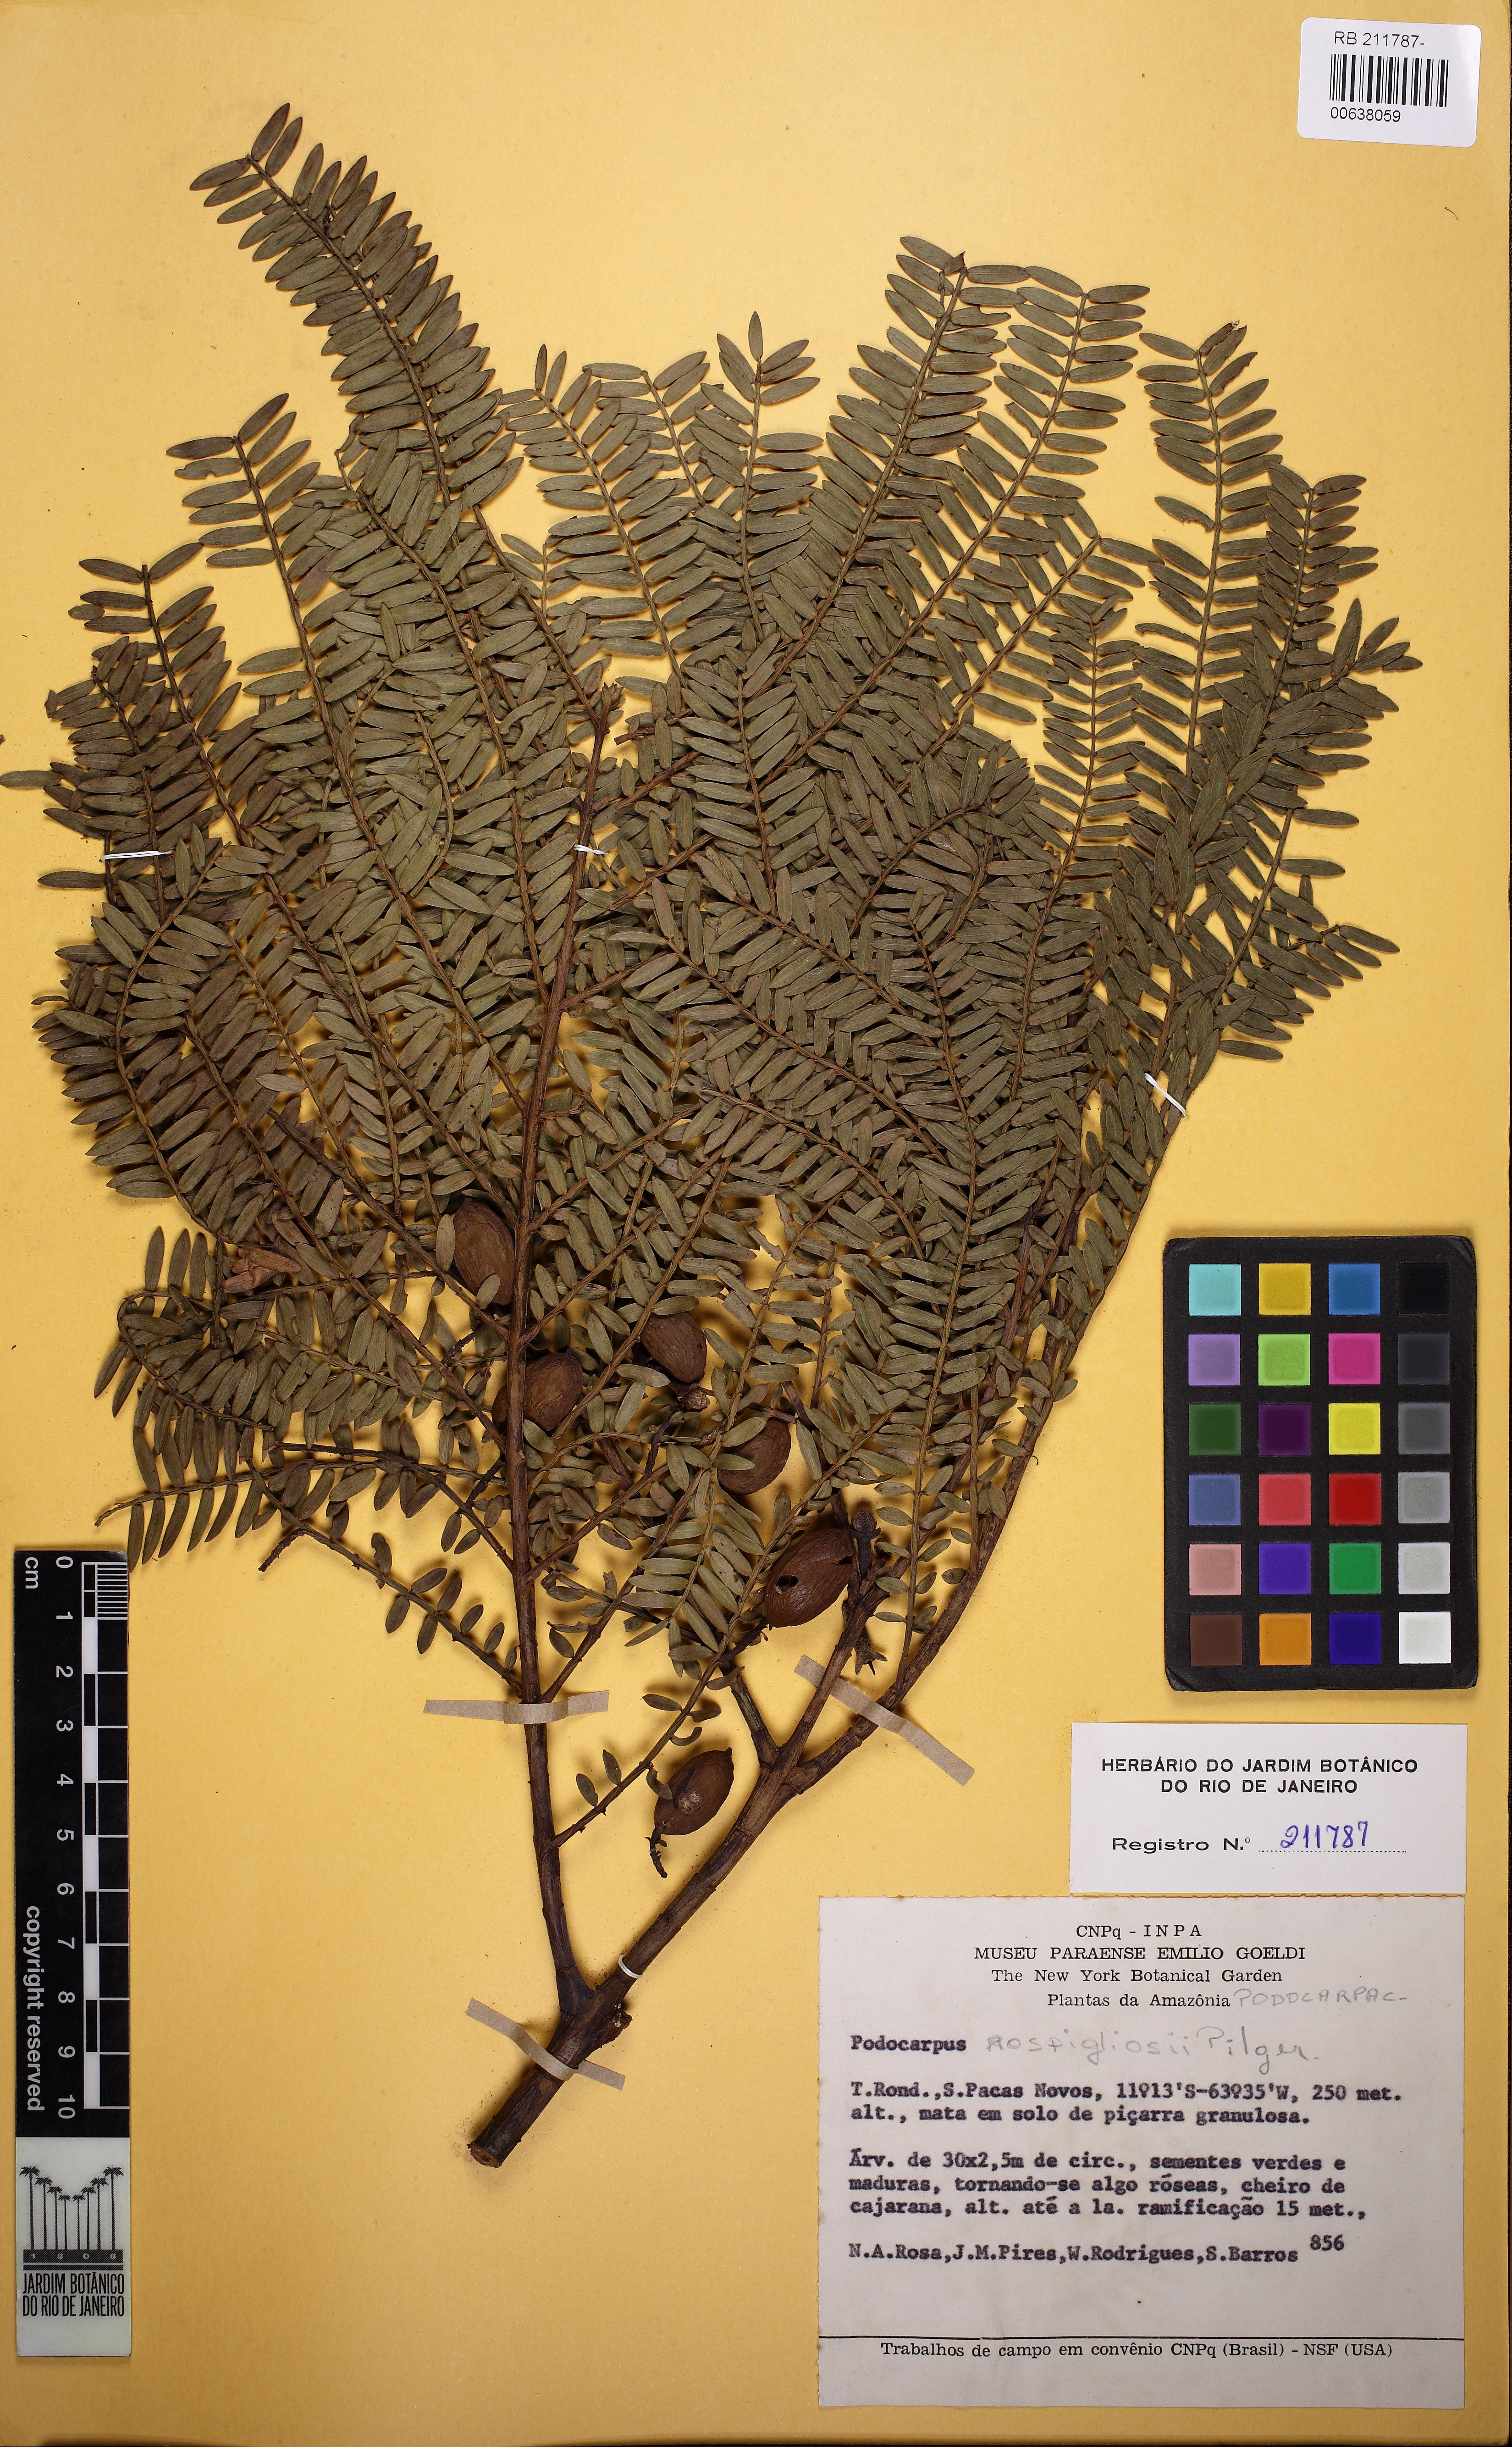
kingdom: Plantae
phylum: Tracheophyta
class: Pinopsida
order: Pinales
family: Podocarpaceae
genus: Retrophyllum
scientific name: Retrophyllum rospigliosii
